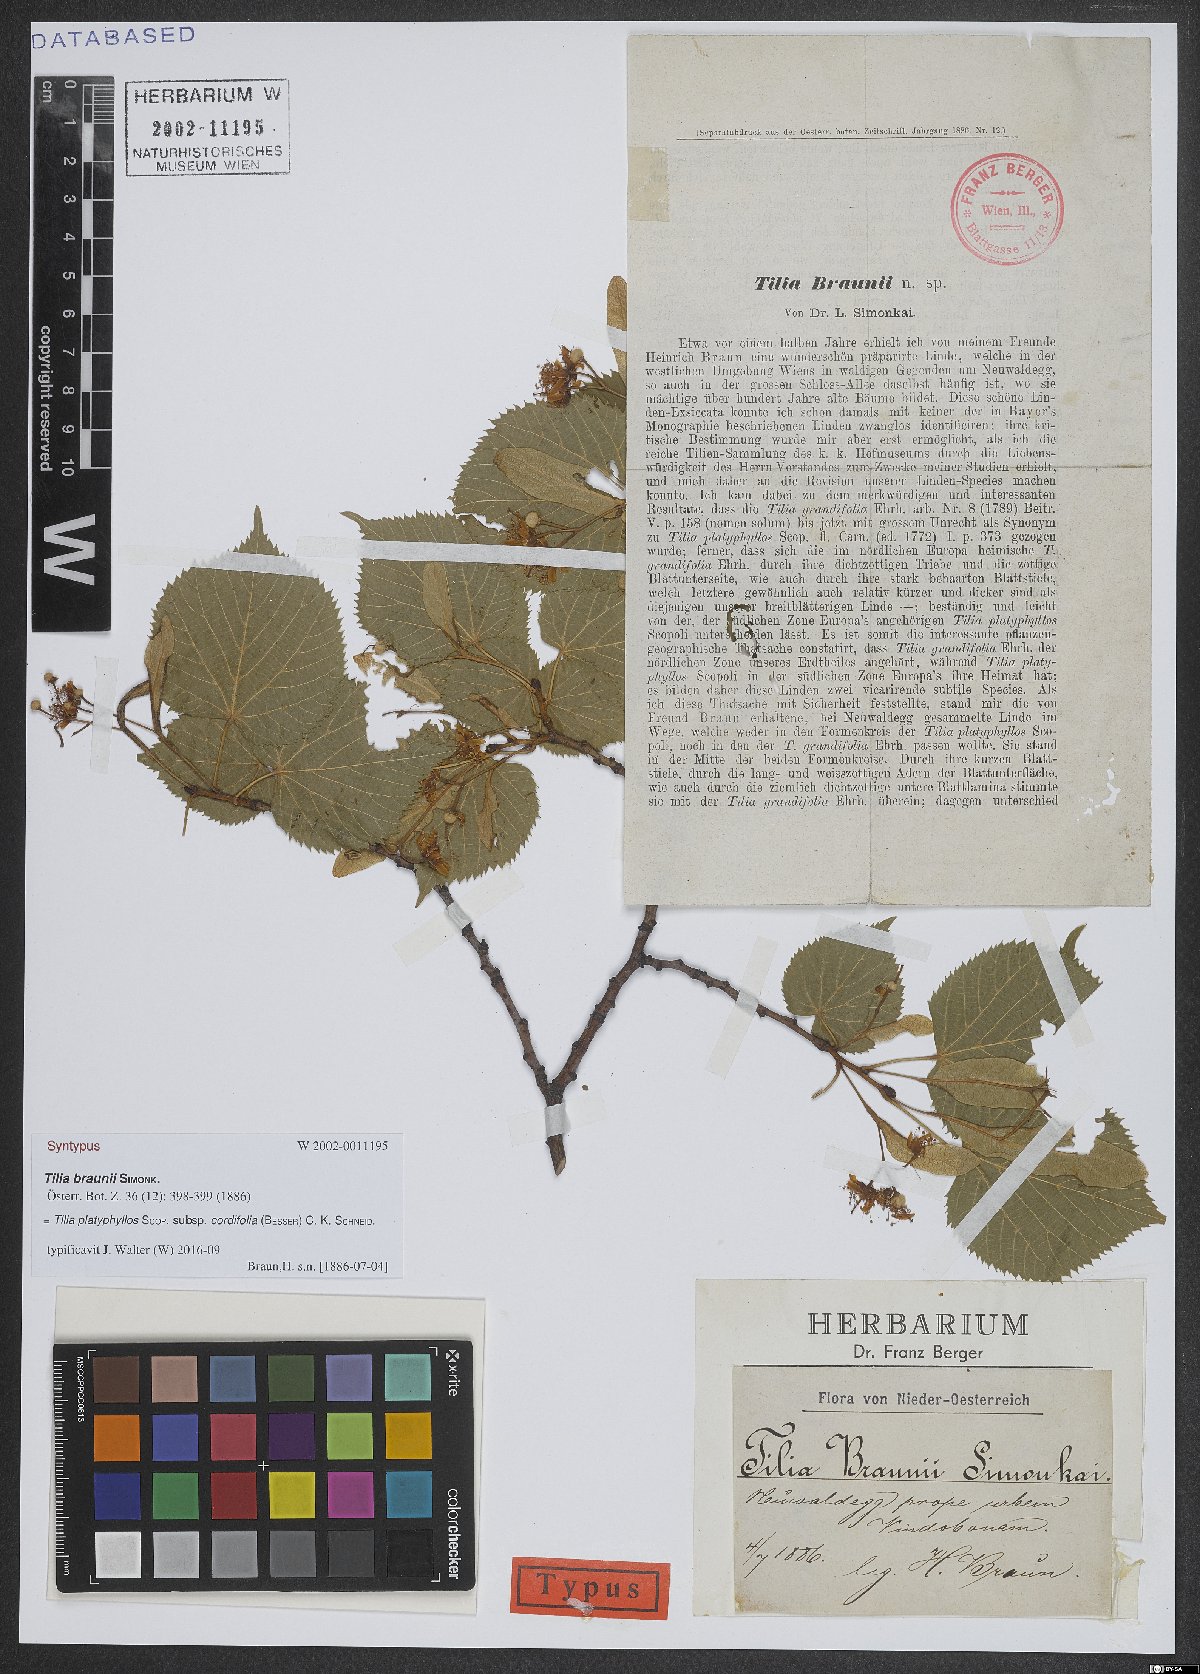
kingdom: Plantae
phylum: Tracheophyta
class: Magnoliopsida
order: Malvales
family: Malvaceae
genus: Tilia
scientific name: Tilia platyphyllos
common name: Large-leaved lime
